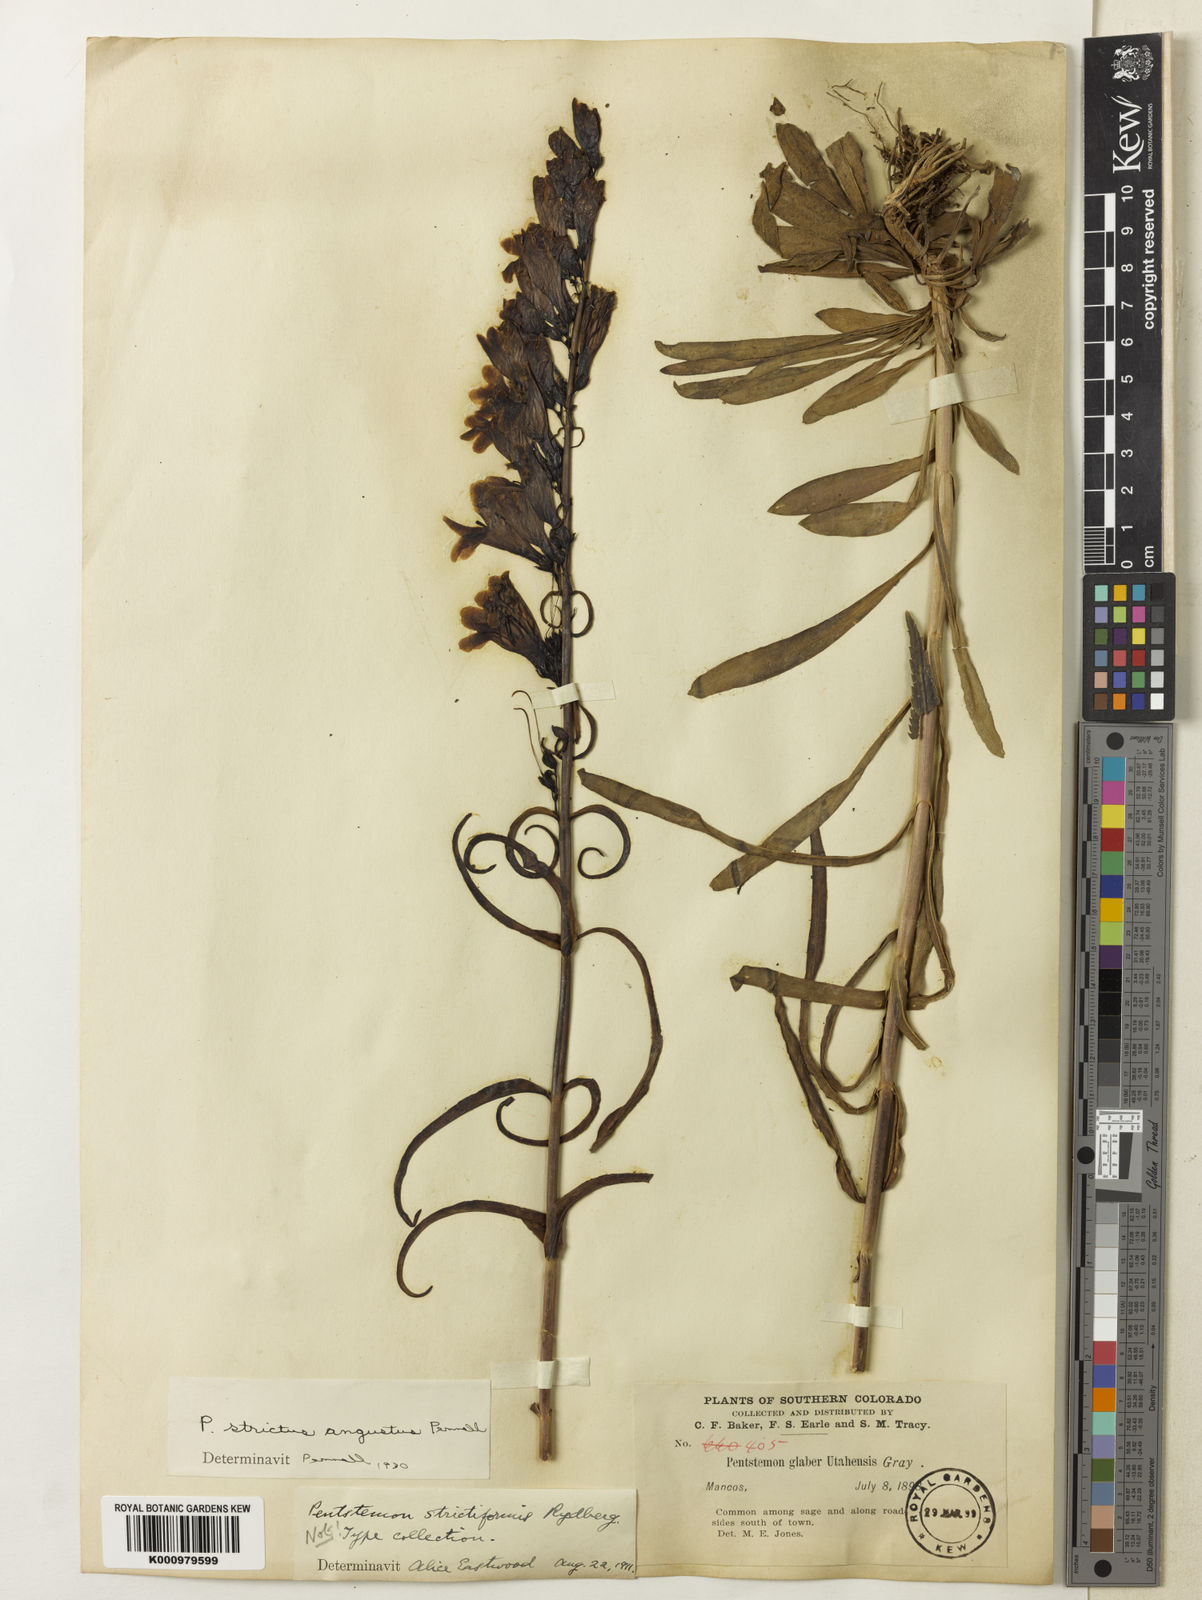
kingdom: Plantae
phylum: Tracheophyta
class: Magnoliopsida
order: Lamiales
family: Plantaginaceae
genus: Penstemon
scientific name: Penstemon
